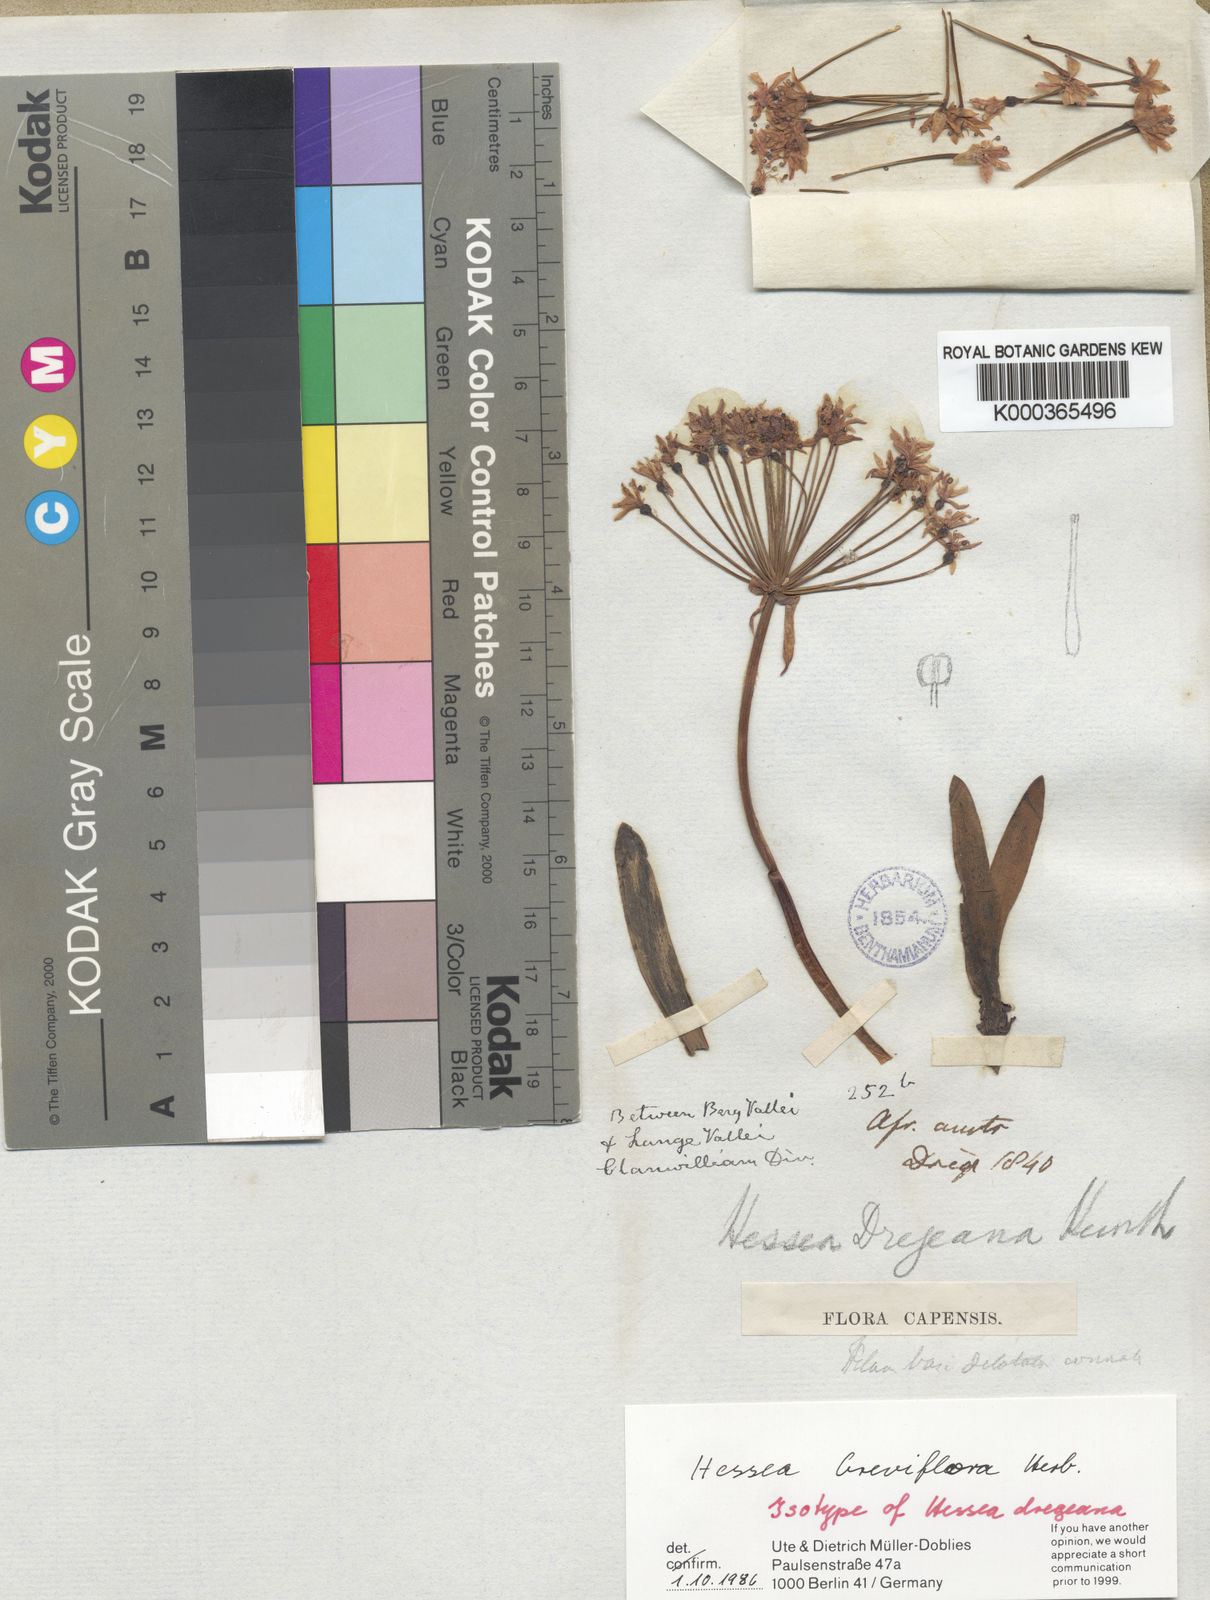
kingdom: Plantae
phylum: Tracheophyta
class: Liliopsida
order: Asparagales
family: Amaryllidaceae
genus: Hessea
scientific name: Hessea breviflora
